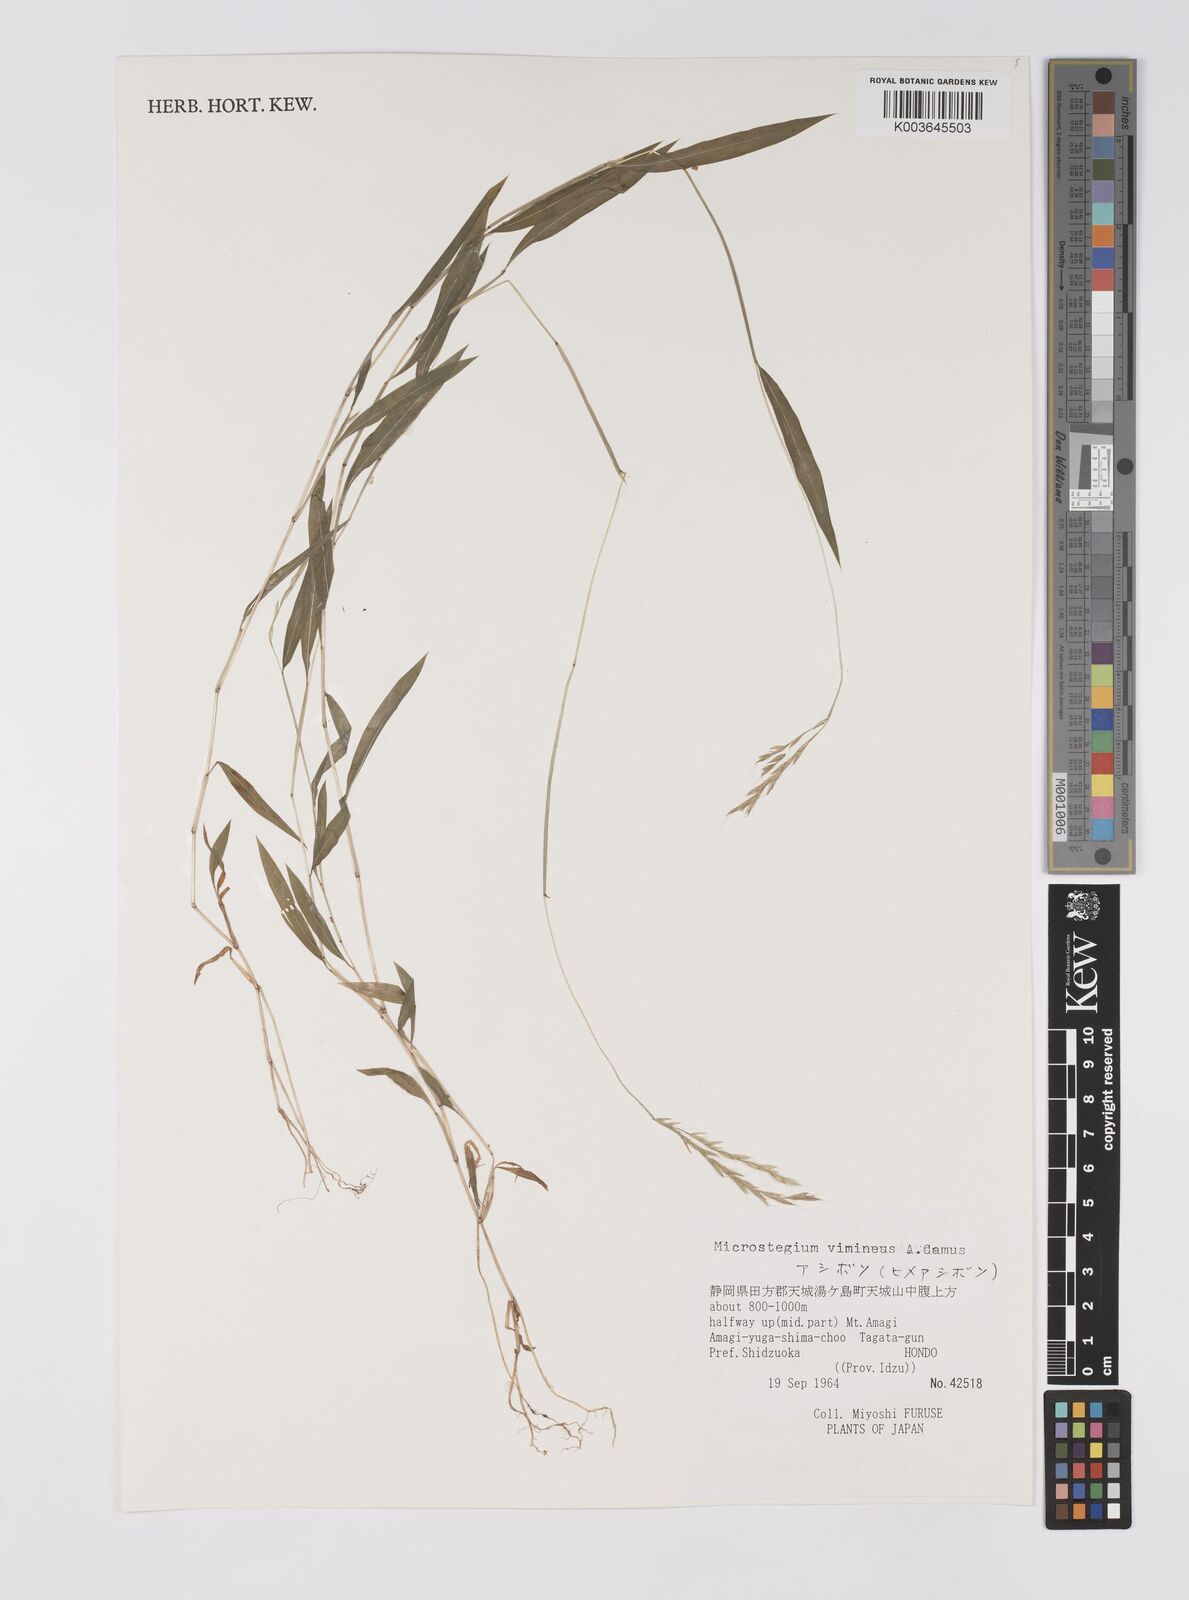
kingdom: Plantae
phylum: Tracheophyta
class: Liliopsida
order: Poales
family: Poaceae
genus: Microstegium
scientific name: Microstegium vimineum
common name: Japanese stiltgrass
